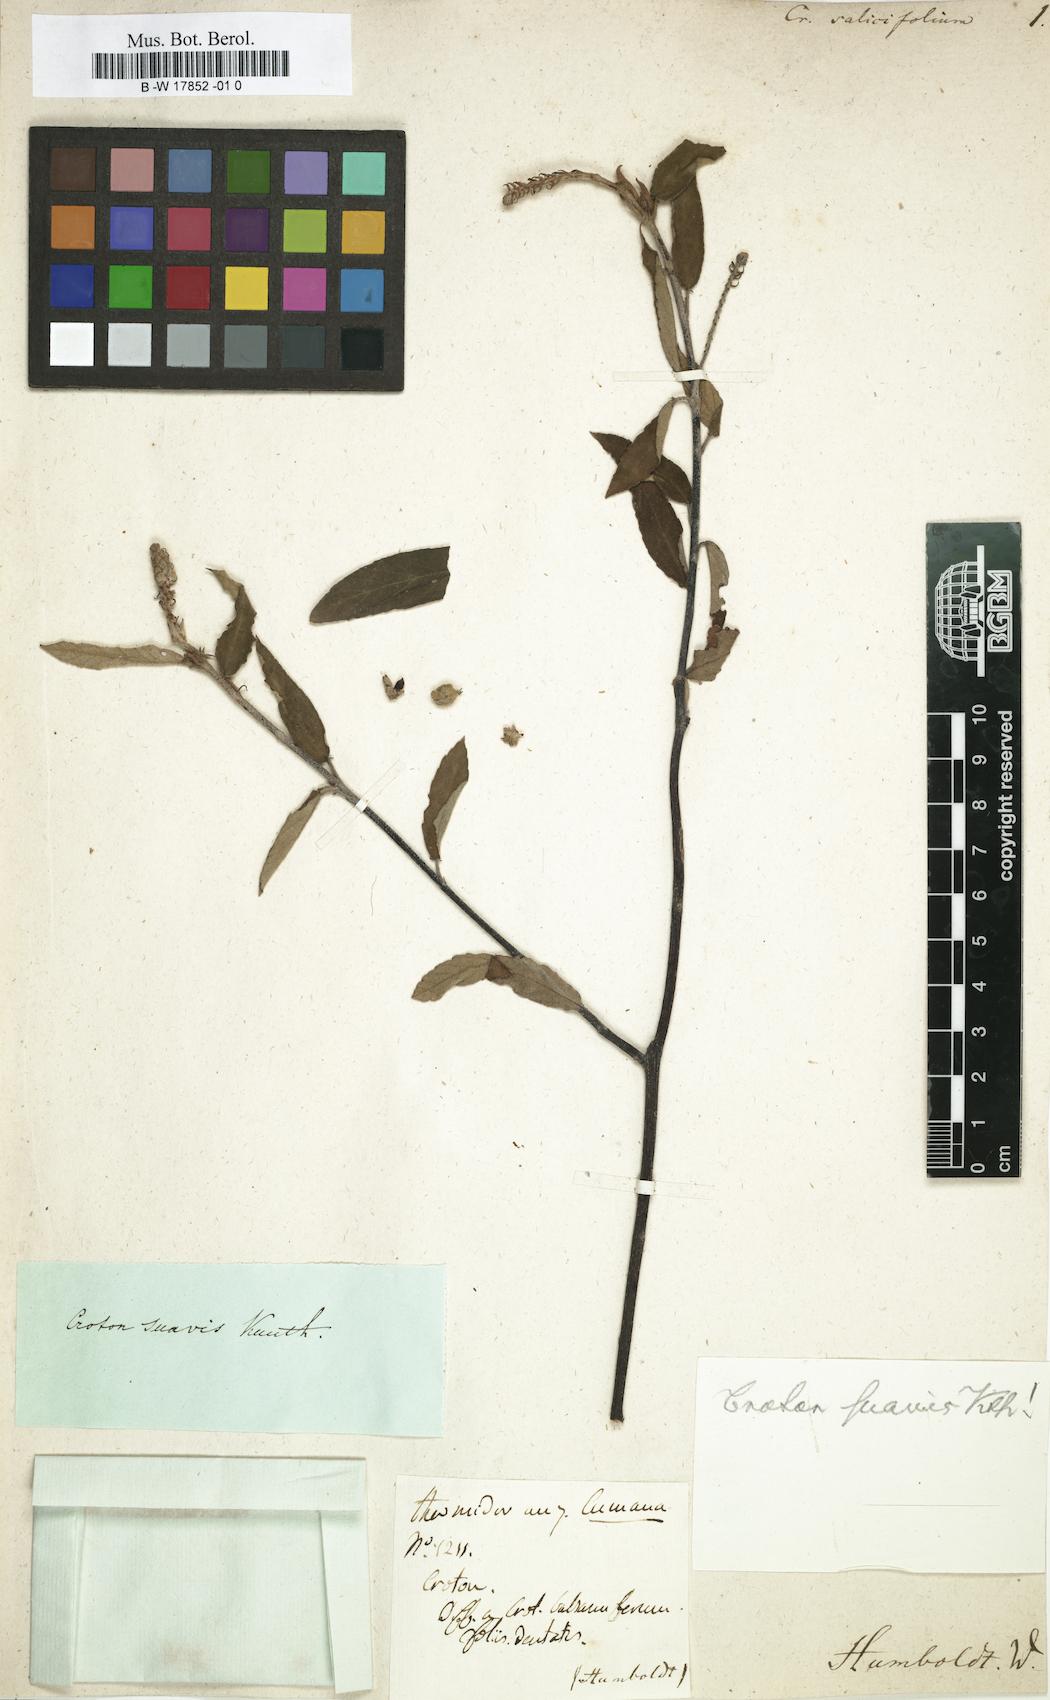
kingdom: Plantae
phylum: Tracheophyta
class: Magnoliopsida
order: Malpighiales
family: Euphorbiaceae
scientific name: Euphorbiaceae
